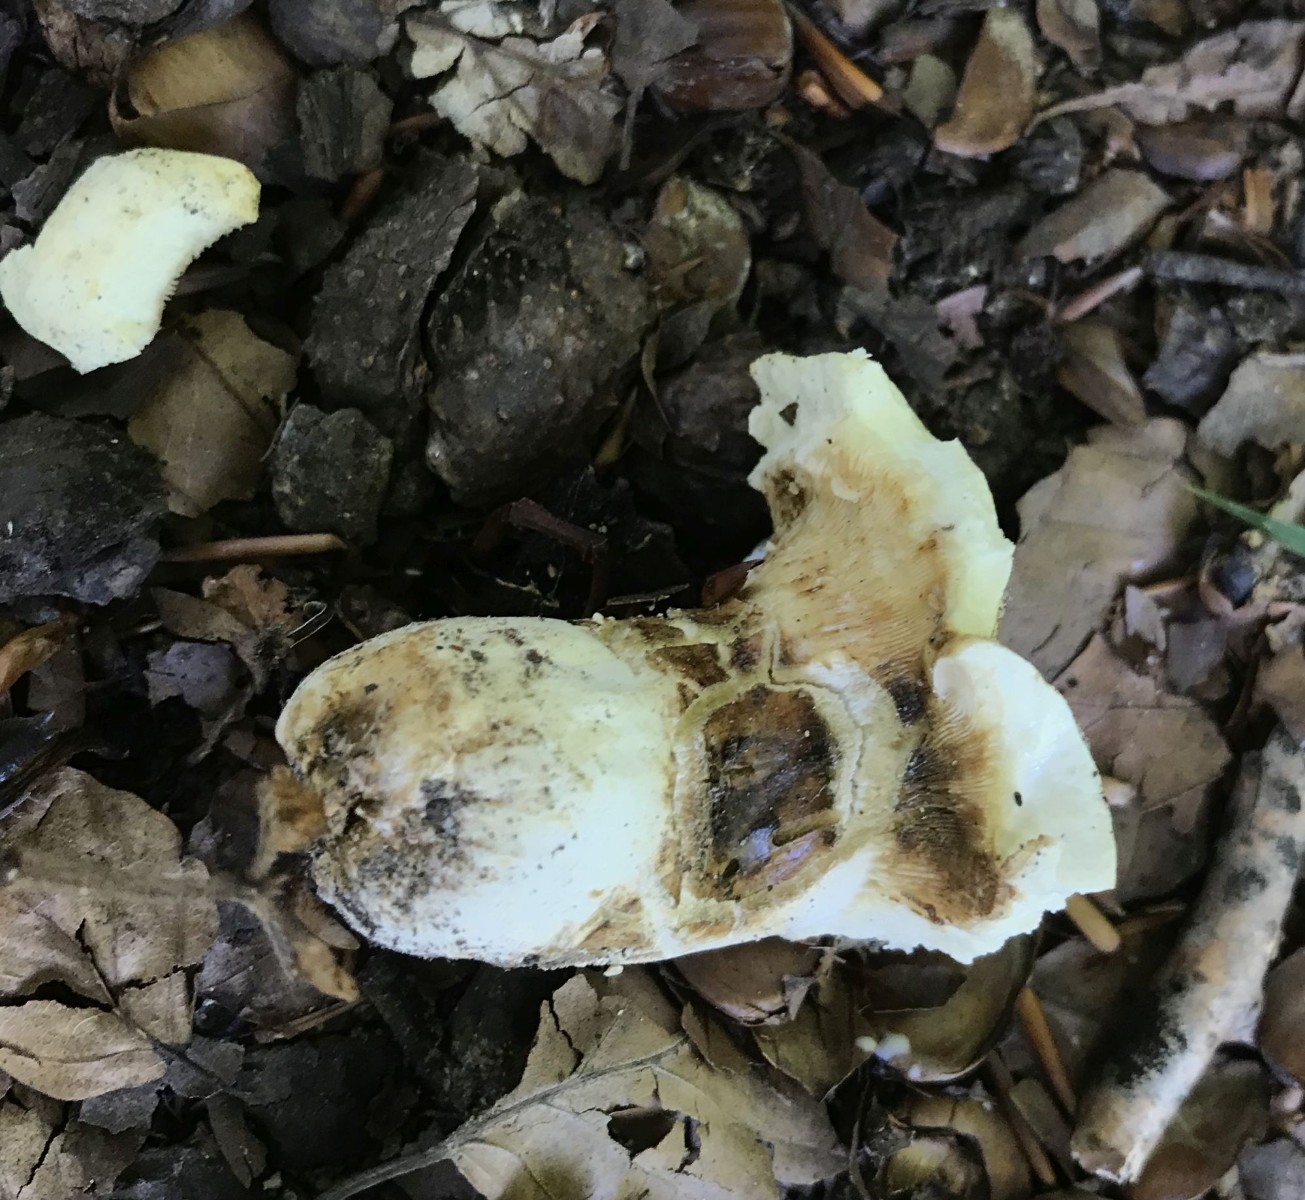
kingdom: Fungi
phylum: Basidiomycota
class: Agaricomycetes
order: Russulales
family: Russulaceae
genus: Lactifluus
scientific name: Lactifluus piperatus
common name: peber-mælkehat
